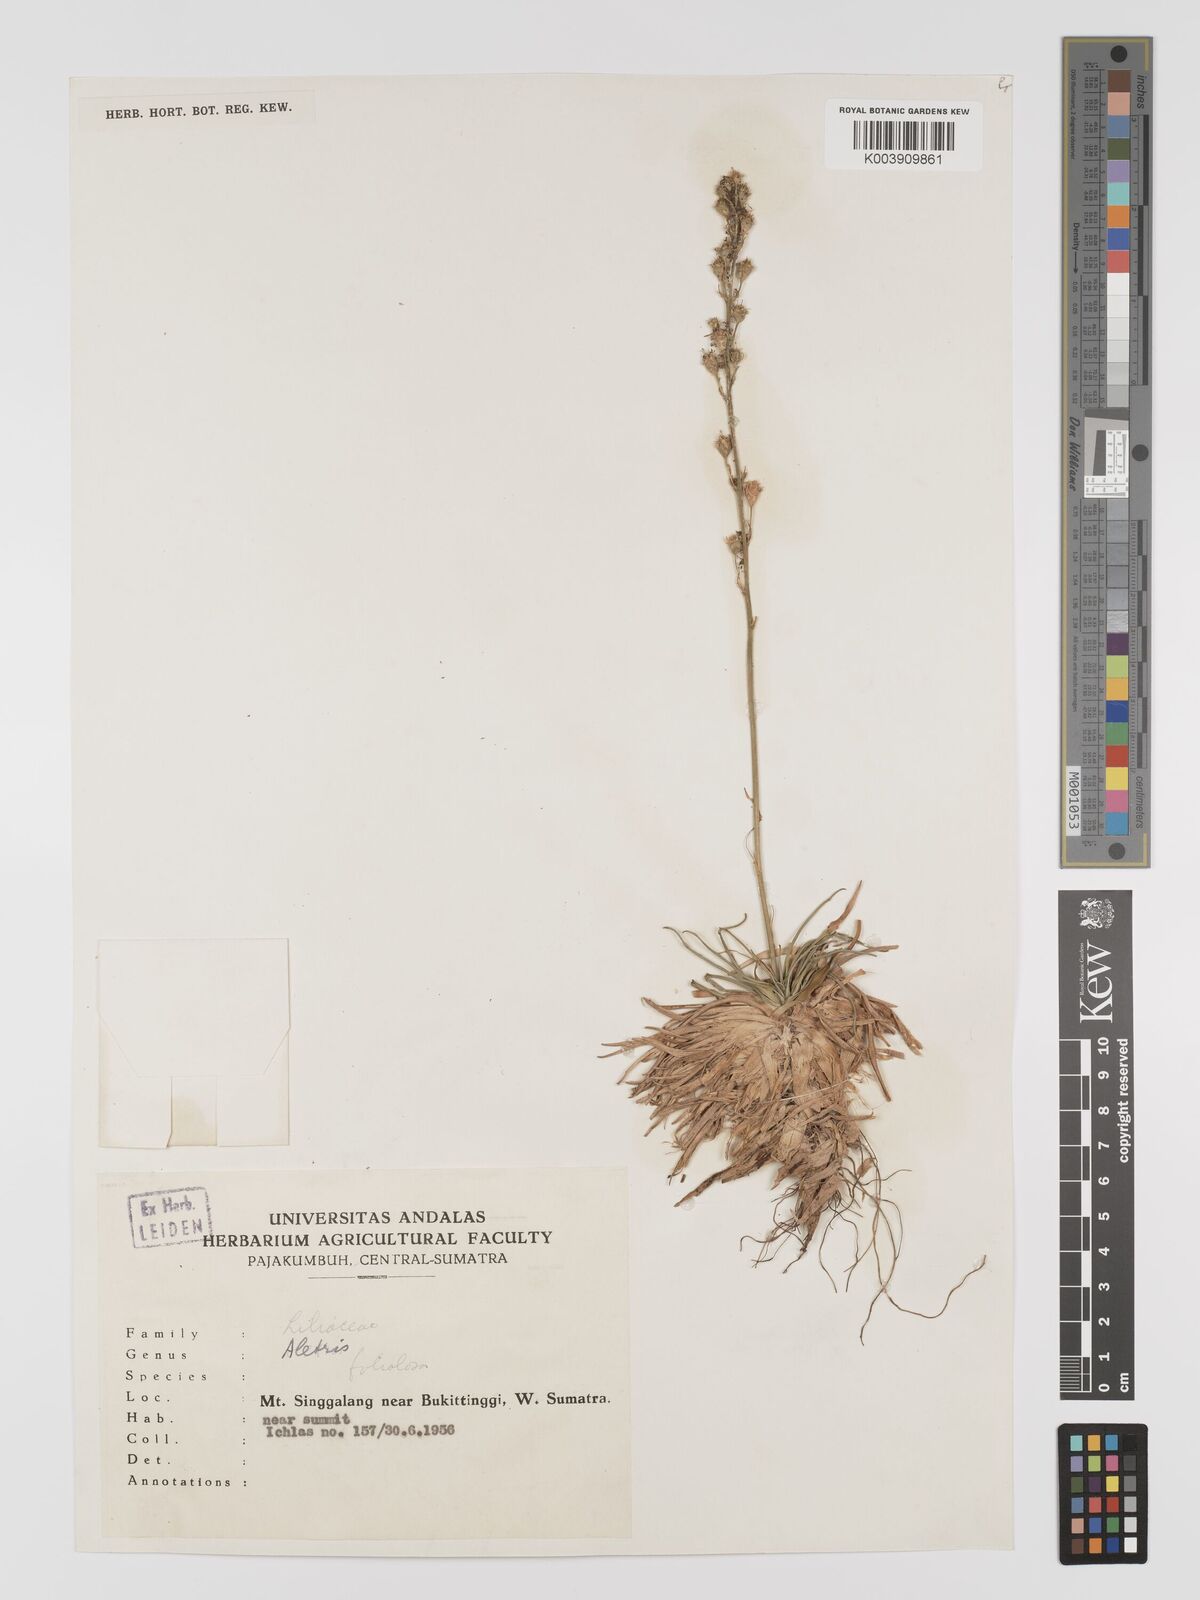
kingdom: Plantae
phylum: Tracheophyta
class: Liliopsida
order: Dioscoreales
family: Nartheciaceae
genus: Aletris
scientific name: Aletris foliolosa
